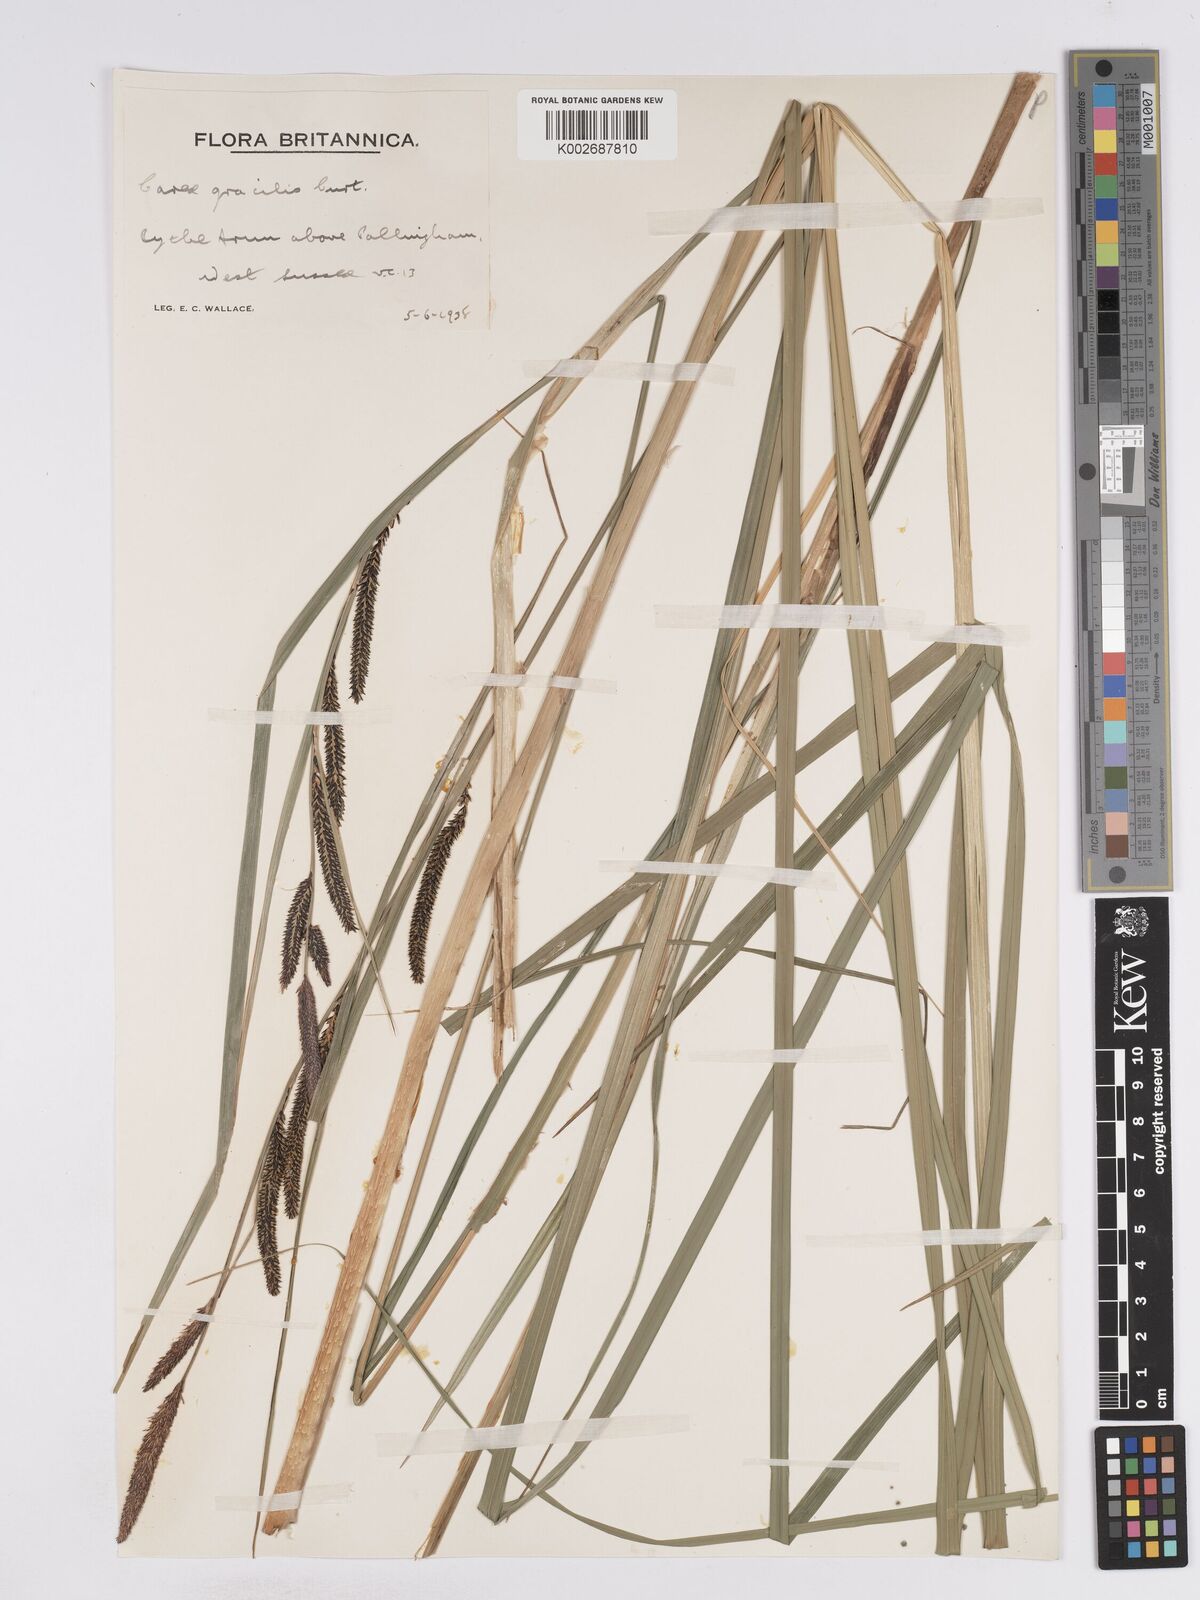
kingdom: Plantae
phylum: Tracheophyta
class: Liliopsida
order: Poales
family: Cyperaceae
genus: Carex
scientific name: Carex acuta
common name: Slender tufted-sedge
